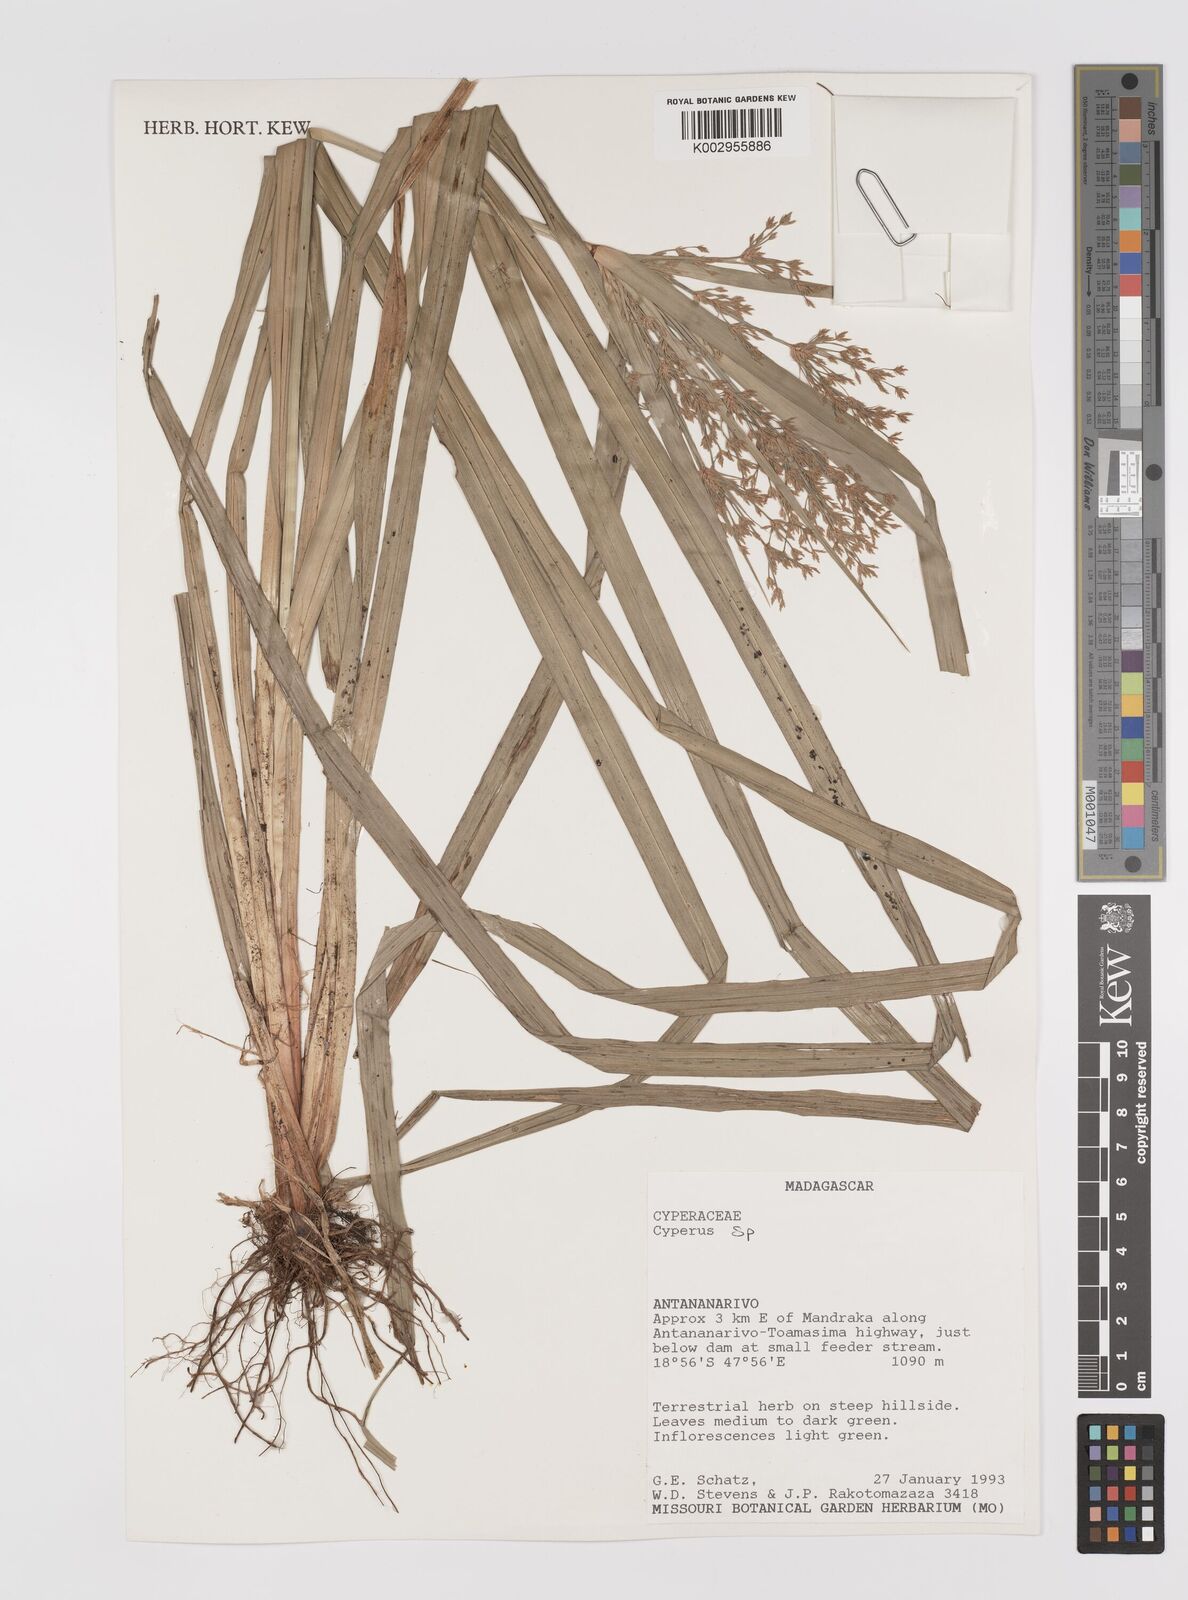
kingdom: Plantae
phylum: Tracheophyta
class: Liliopsida
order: Poales
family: Cyperaceae
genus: Cyperus
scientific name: Cyperus
